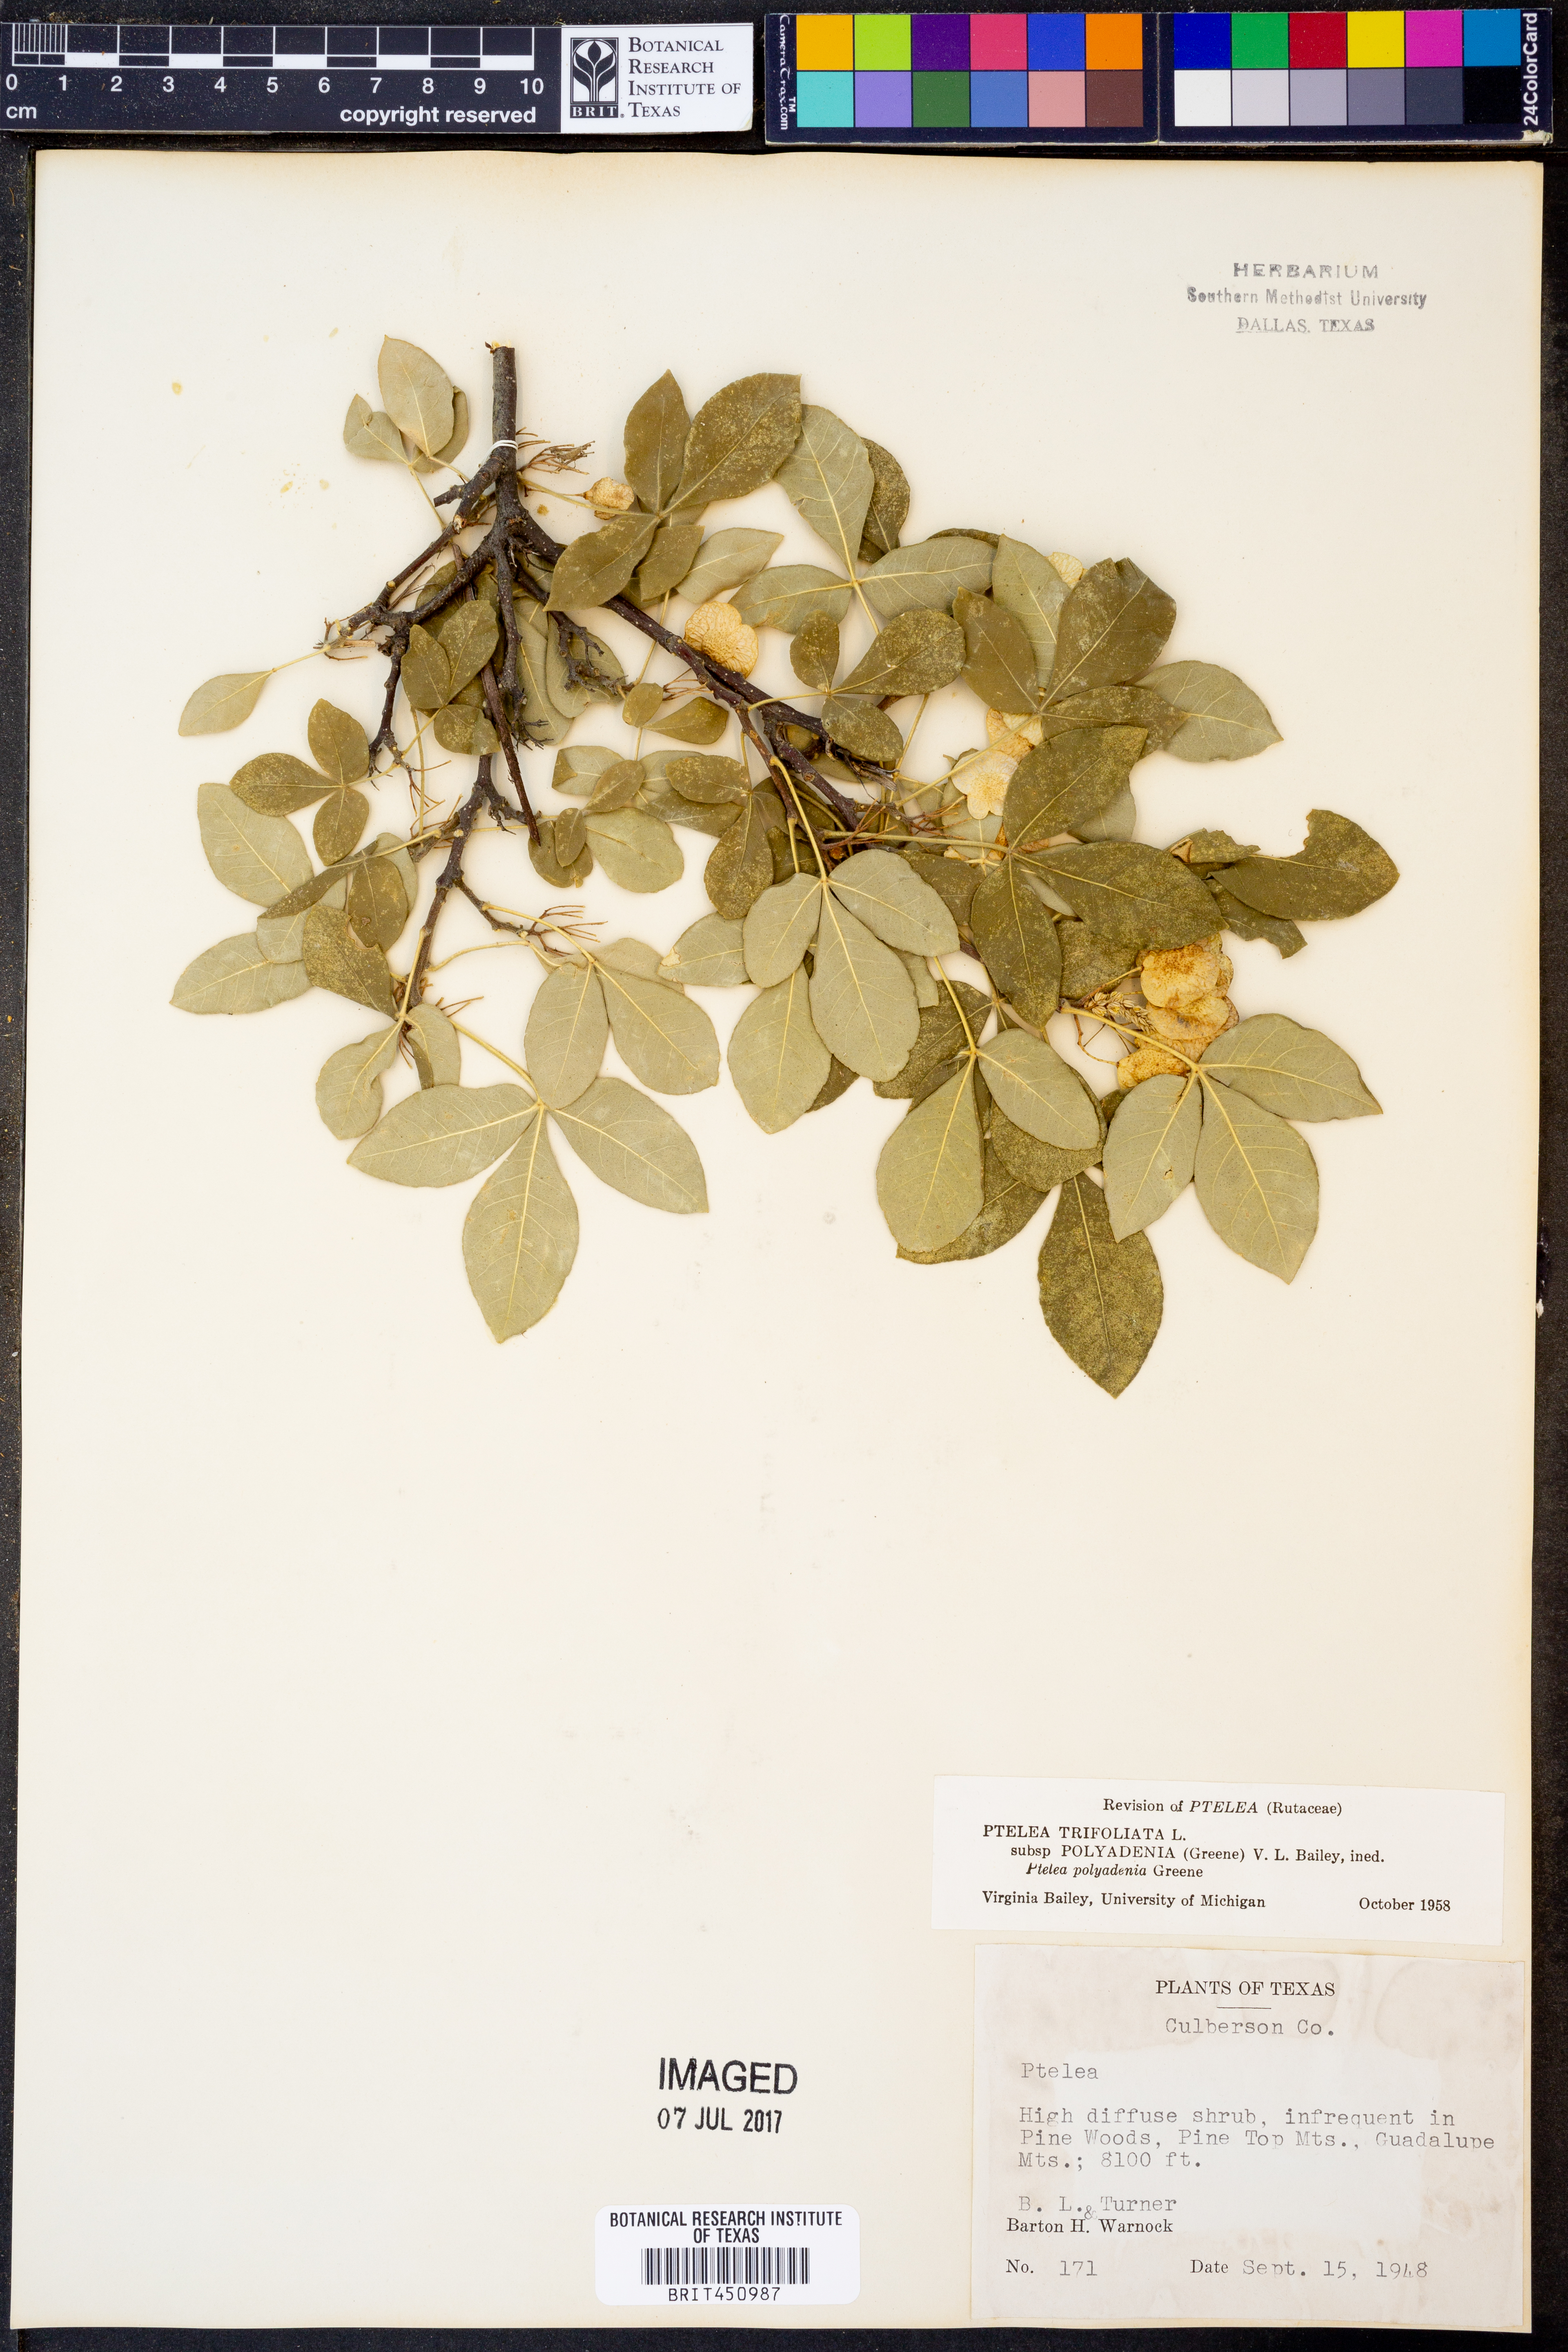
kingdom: Plantae
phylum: Tracheophyta
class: Magnoliopsida
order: Sapindales
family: Rutaceae
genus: Ptelea
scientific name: Ptelea trifoliata
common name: Common hop-tree
